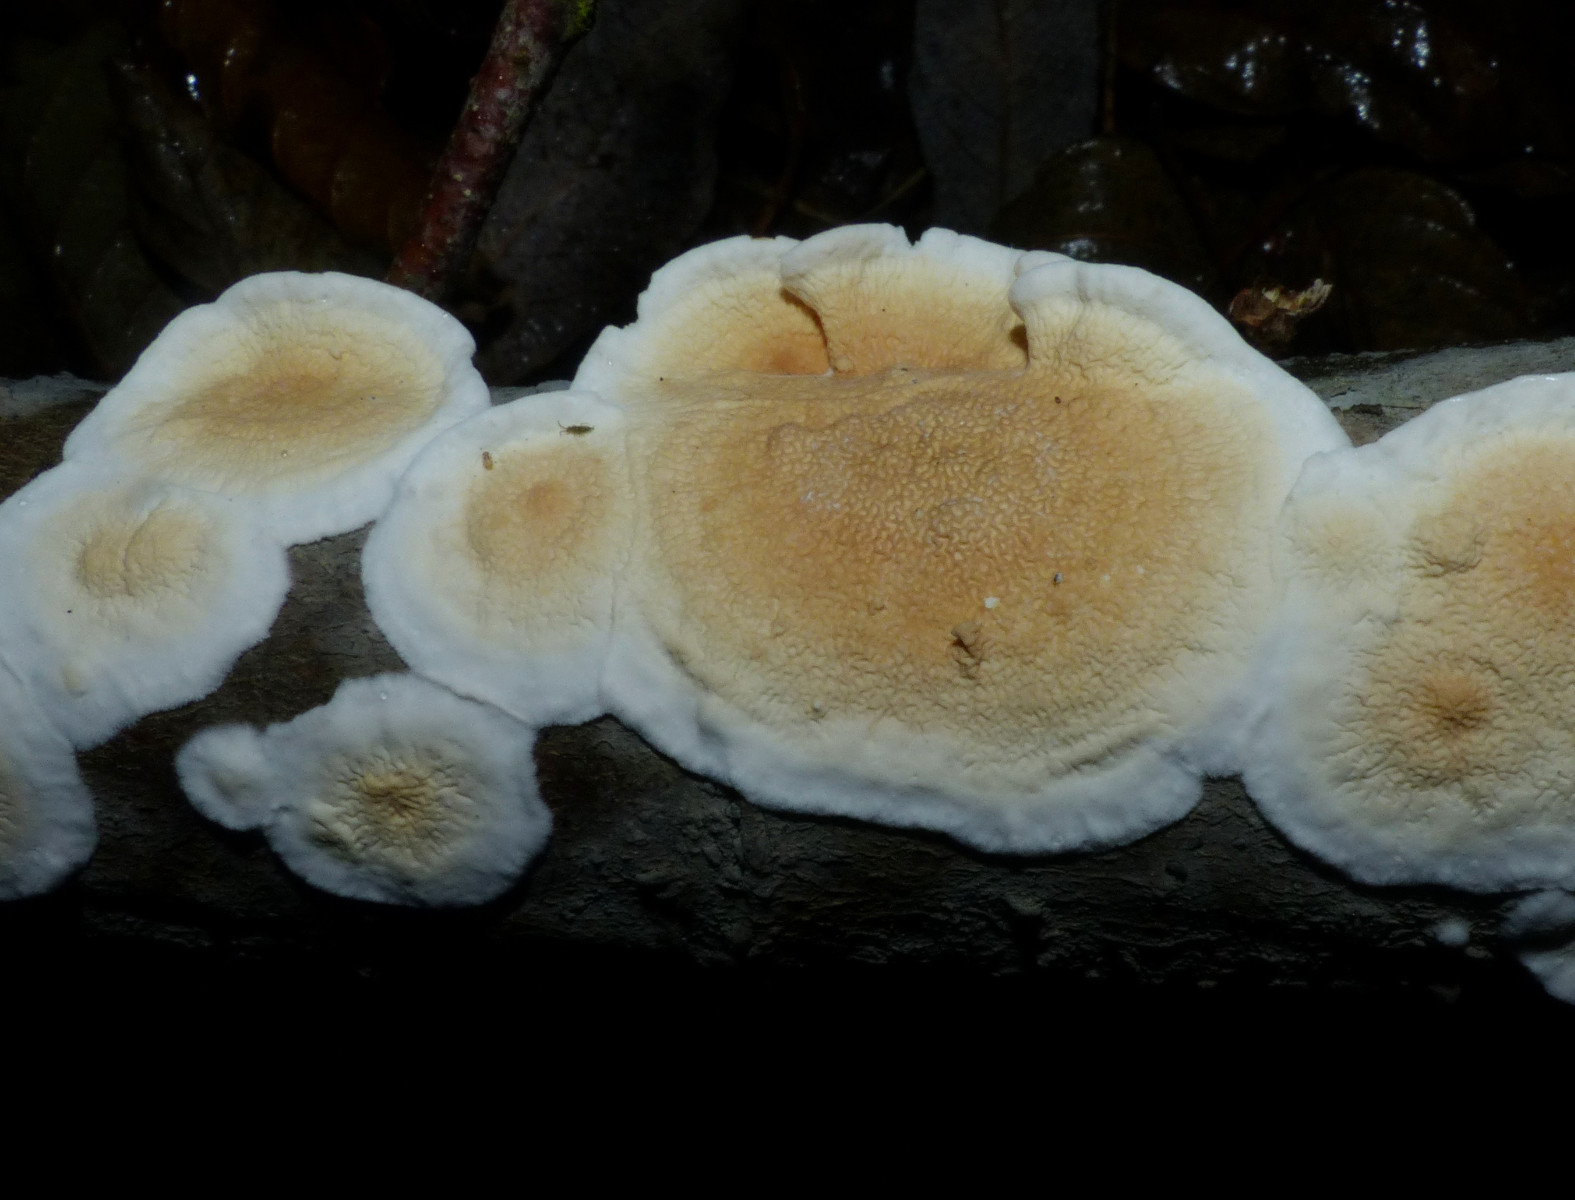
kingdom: Fungi
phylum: Basidiomycota
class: Agaricomycetes
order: Polyporales
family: Irpicaceae
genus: Byssomerulius
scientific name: Byssomerulius corium
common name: læder-åresvamp
